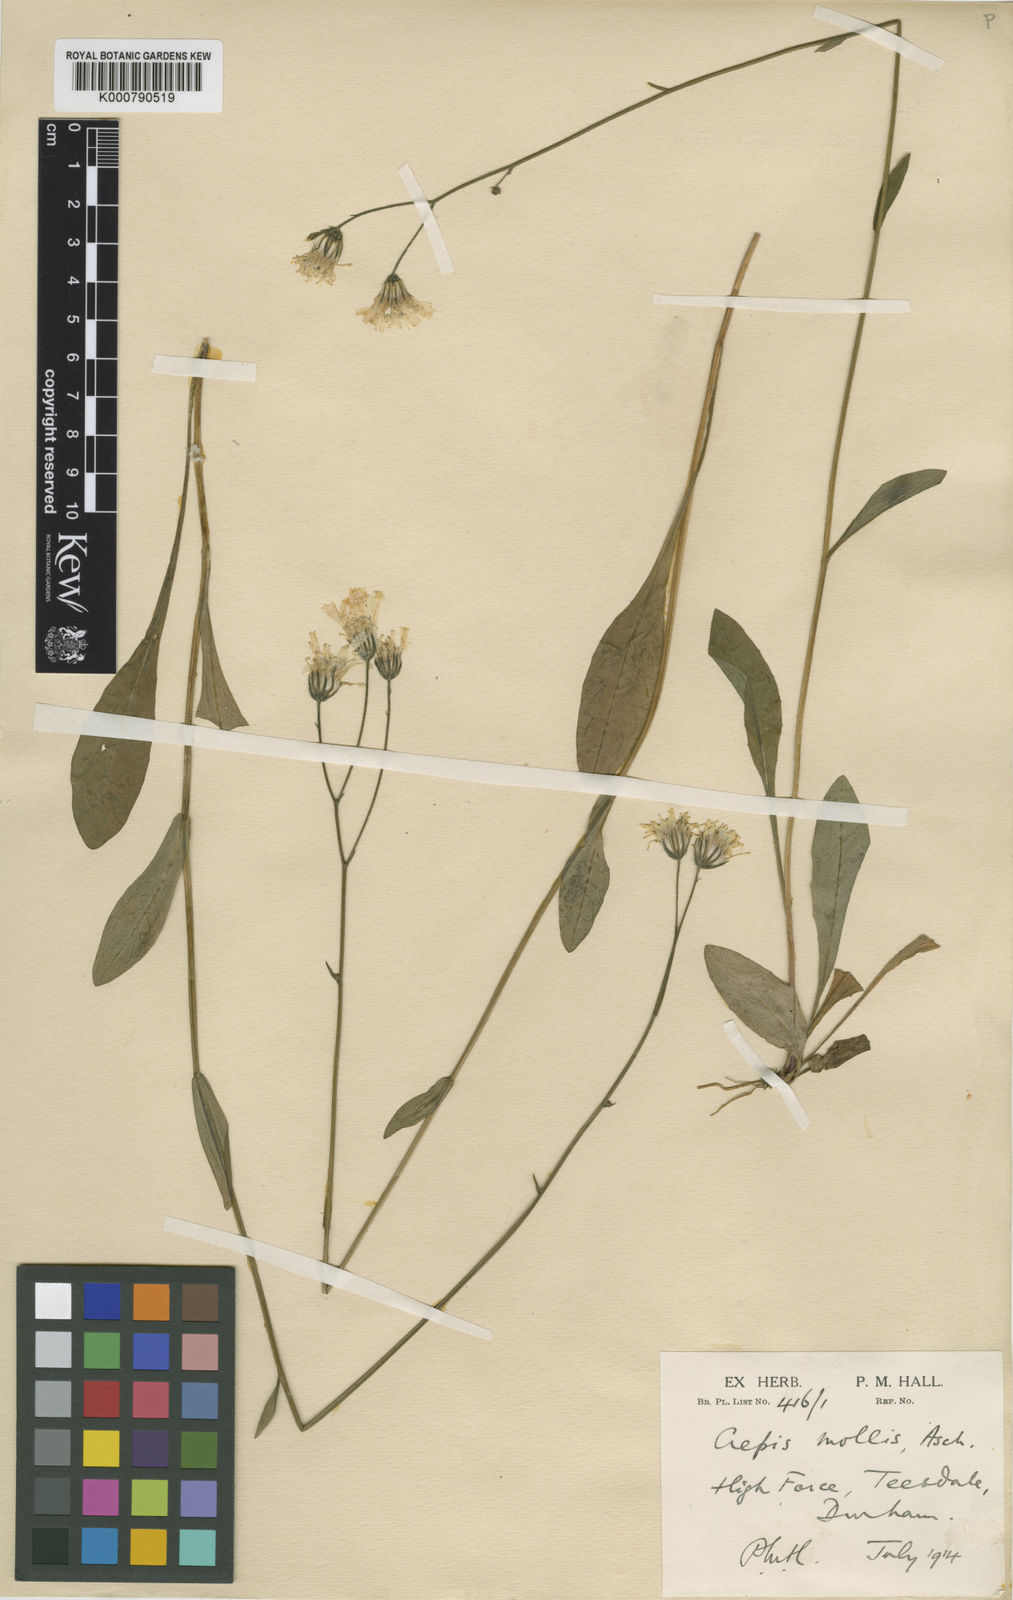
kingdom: Plantae
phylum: Tracheophyta
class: Magnoliopsida
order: Asterales
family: Asteraceae
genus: Crepis
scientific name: Crepis mollis
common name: Northern hawk's-beard
